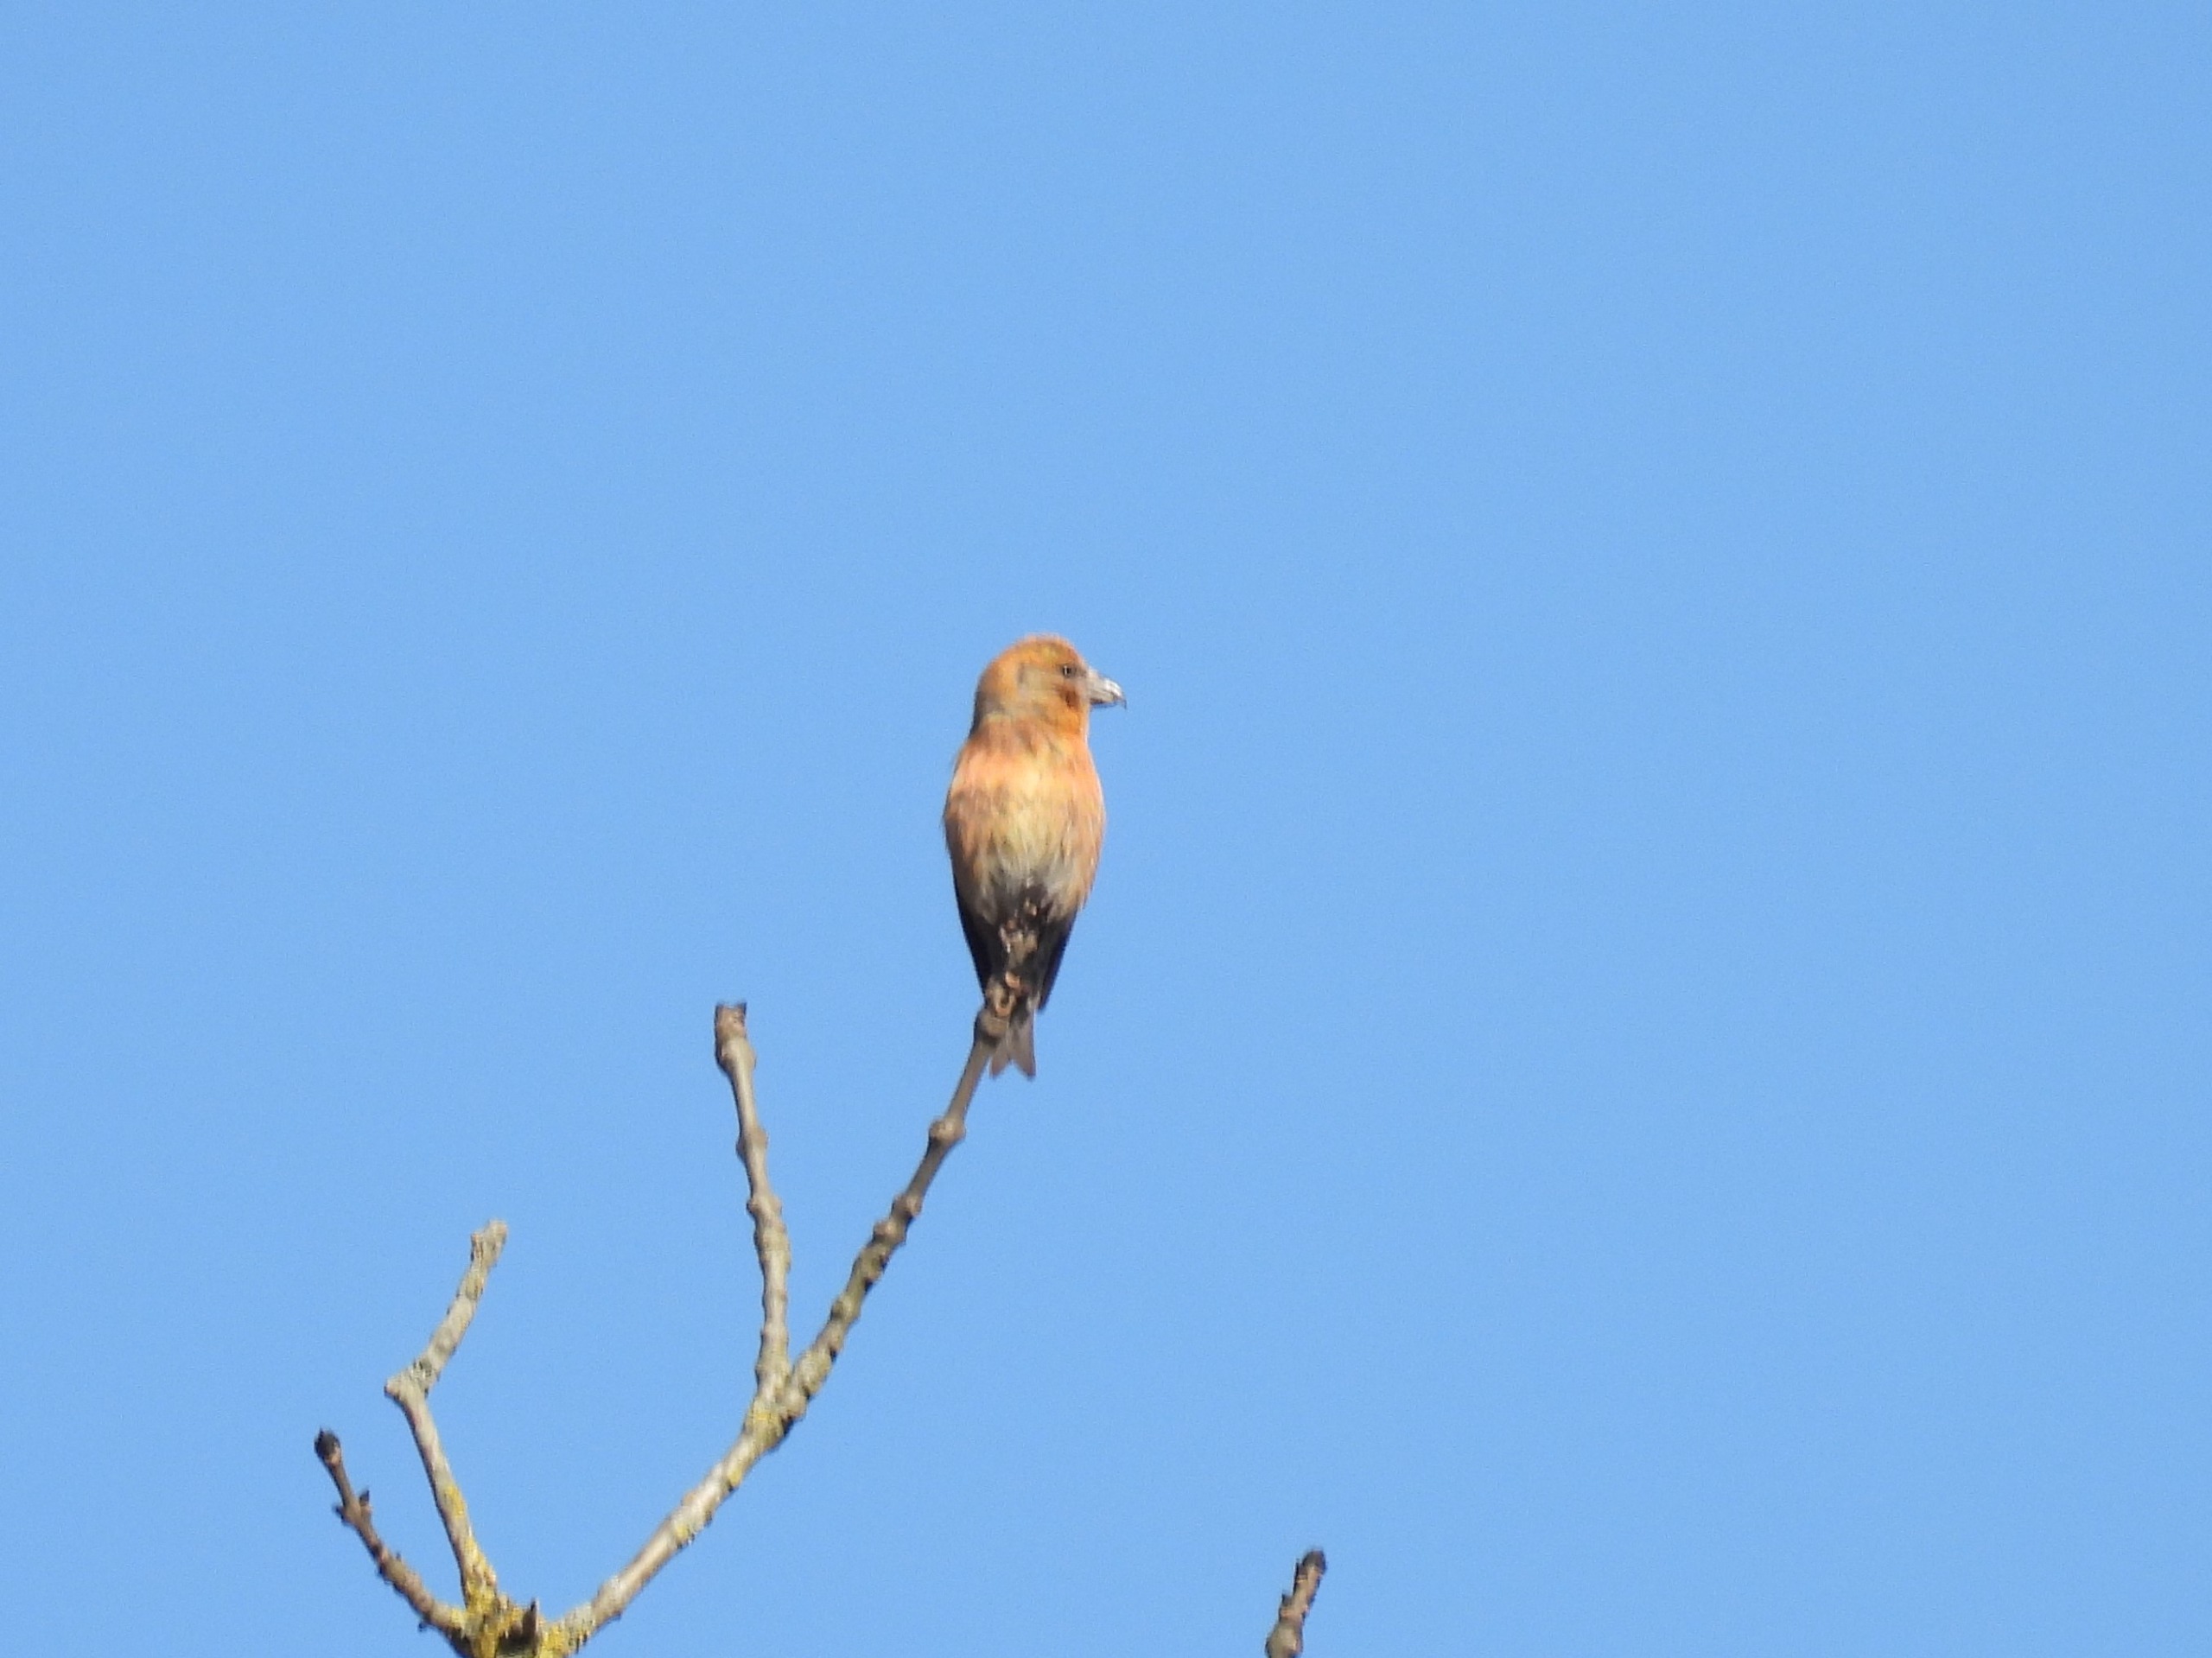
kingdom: Animalia
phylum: Chordata
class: Aves
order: Passeriformes
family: Fringillidae
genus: Loxia
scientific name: Loxia curvirostra
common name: Lille korsnæb
